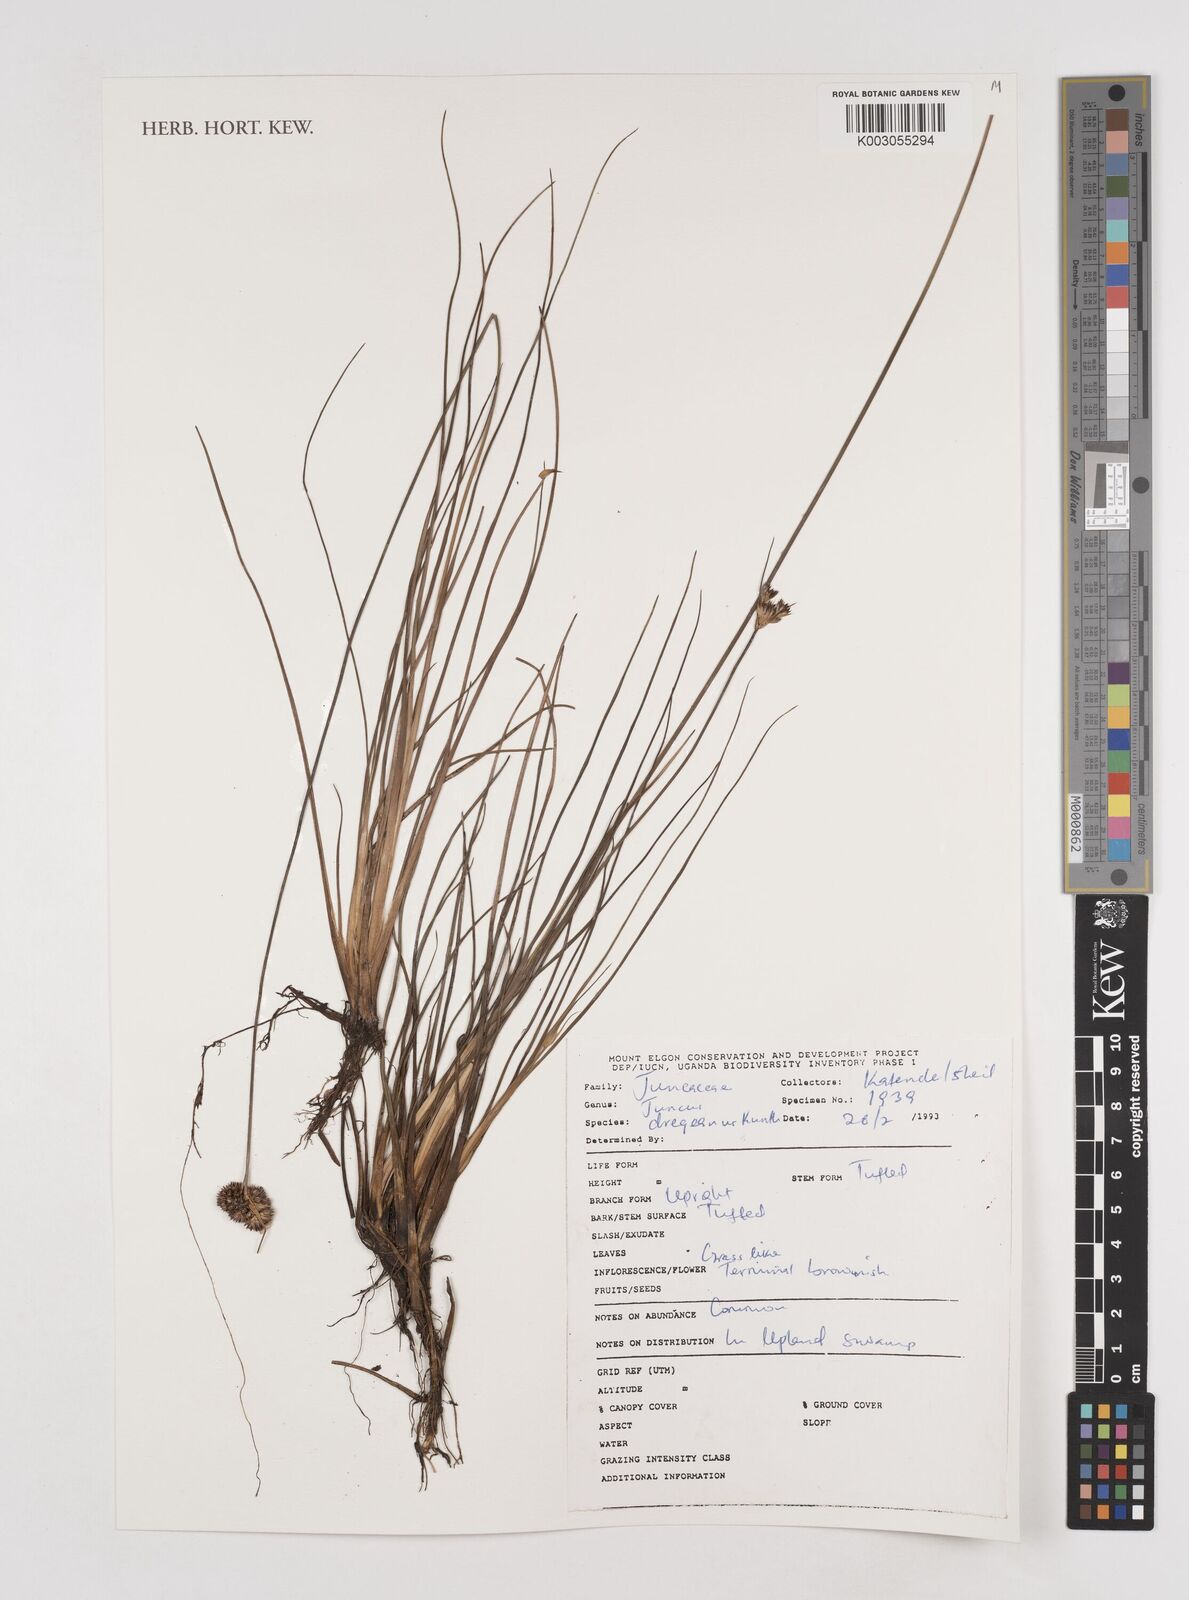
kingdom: Plantae
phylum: Tracheophyta
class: Liliopsida
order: Poales
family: Juncaceae
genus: Juncus
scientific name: Juncus dregeanus
